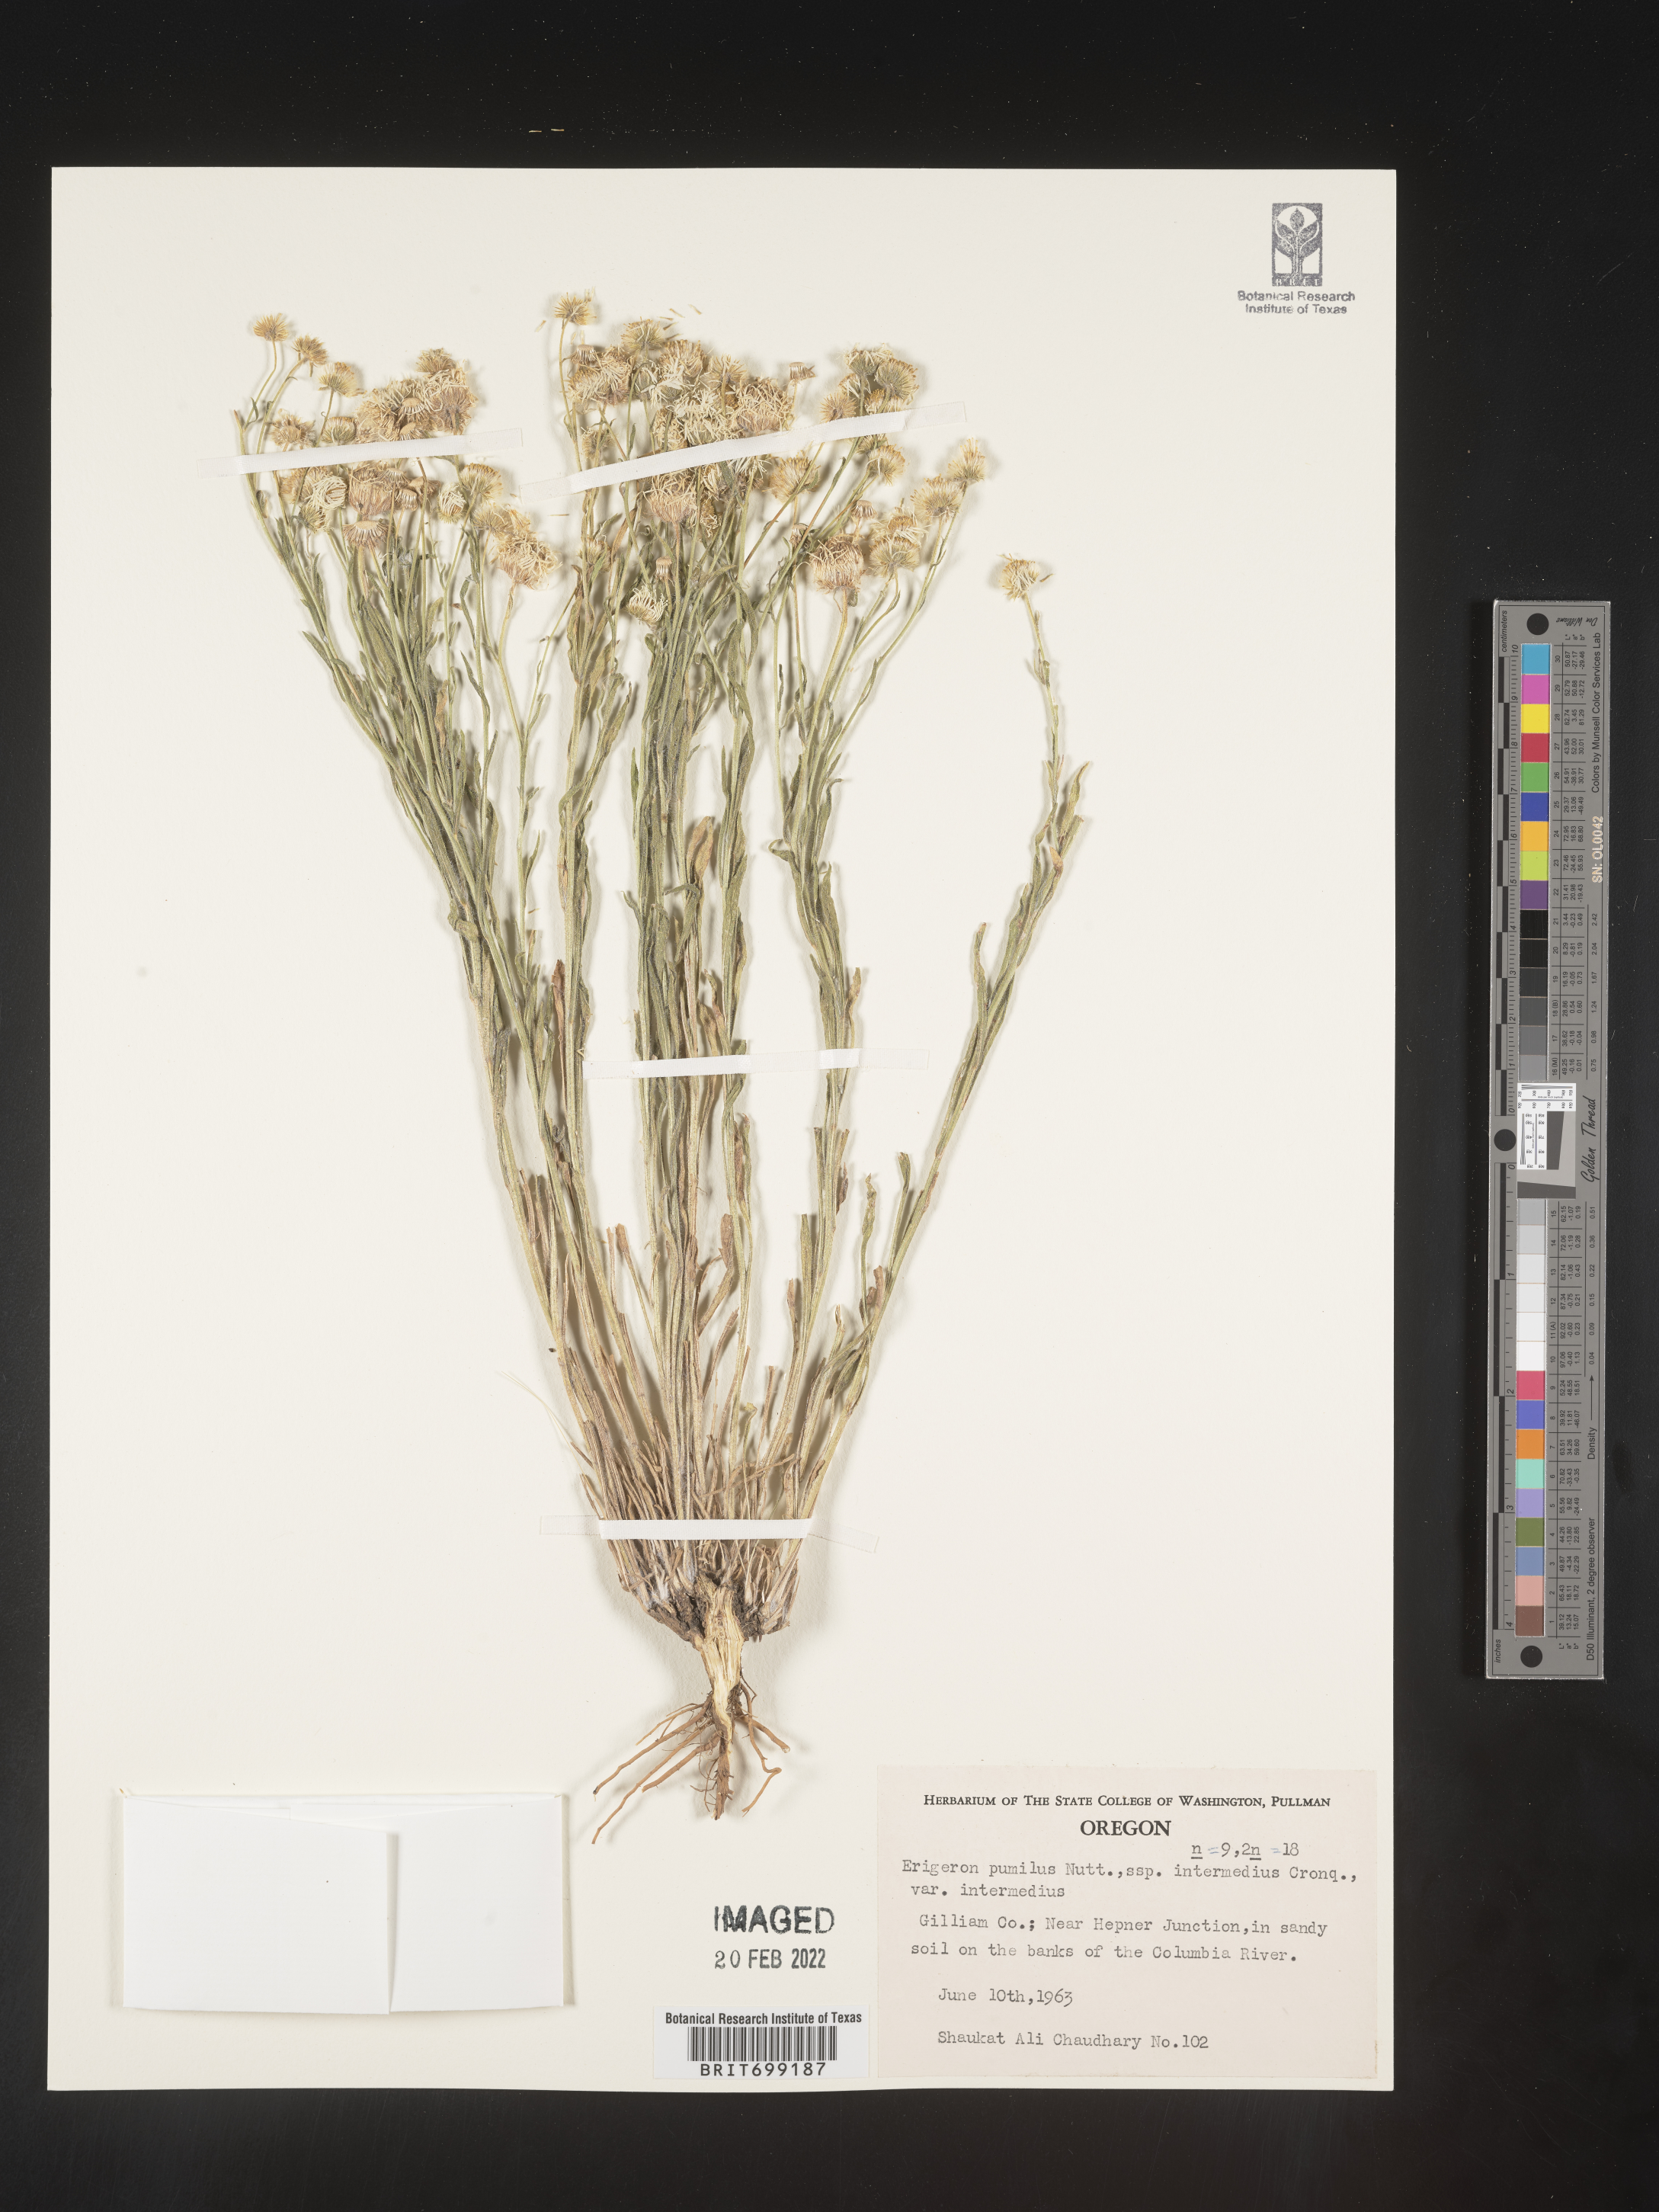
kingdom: Plantae
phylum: Tracheophyta
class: Magnoliopsida
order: Asterales
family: Asteraceae
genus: Erigeron
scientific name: Erigeron pumilus
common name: Shaggy fleabane
